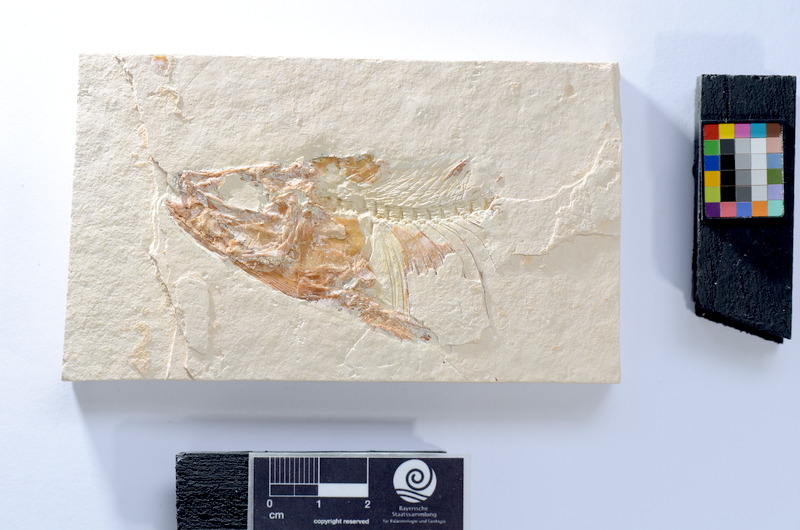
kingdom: Animalia
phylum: Chordata
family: Ascalaboidae
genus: Tharsis
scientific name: Tharsis dubius
